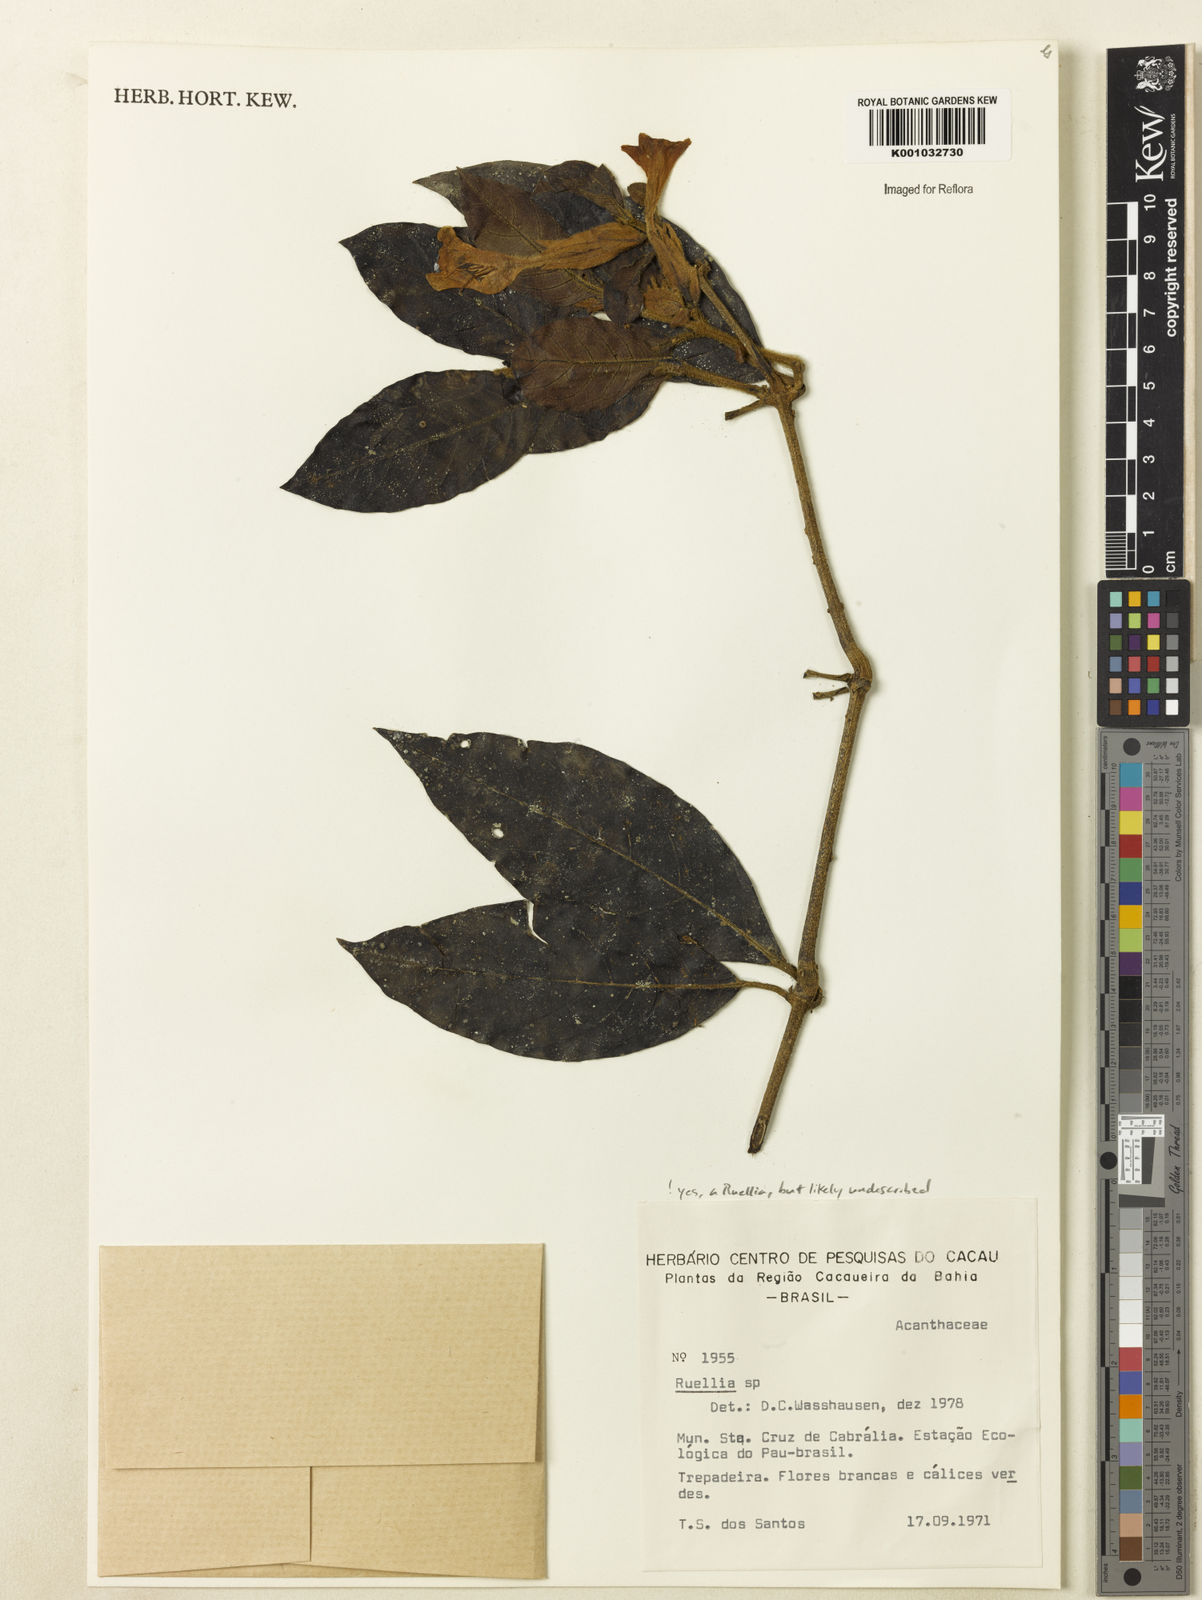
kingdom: Plantae
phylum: Tracheophyta
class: Magnoliopsida
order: Lamiales
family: Acanthaceae
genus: Ruellia
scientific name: Ruellia
